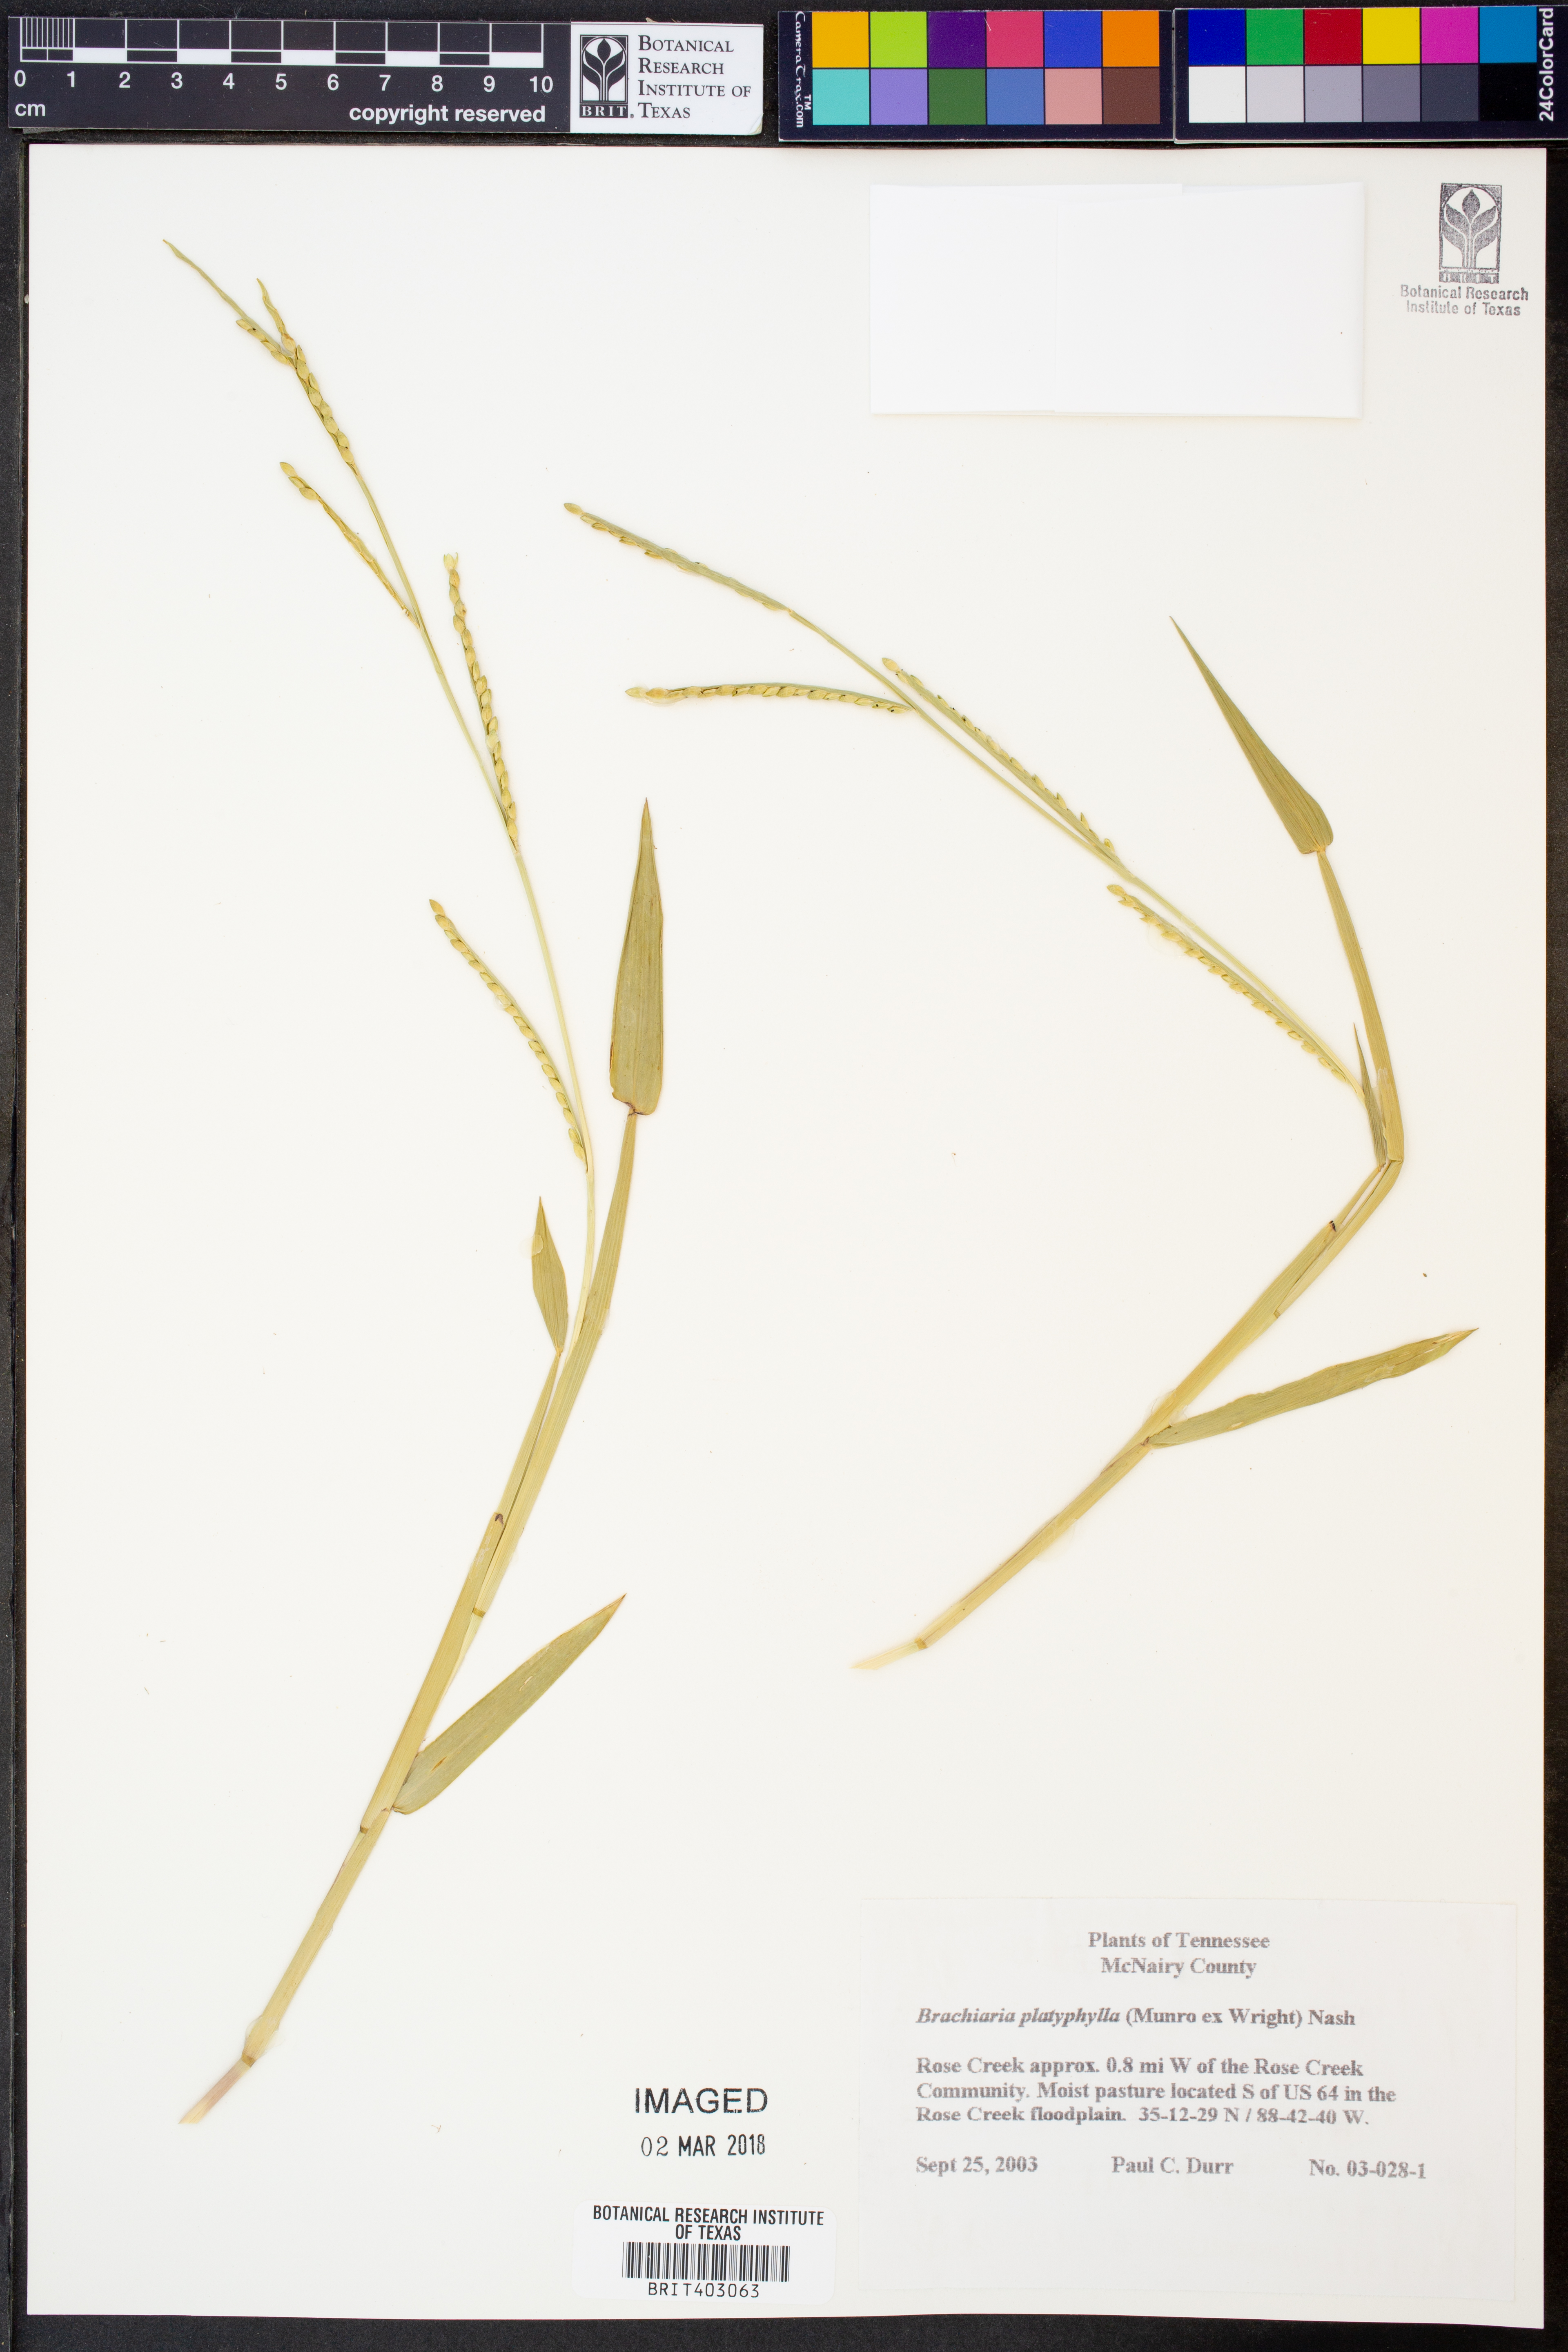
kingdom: Plantae
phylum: Tracheophyta
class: Liliopsida
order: Poales
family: Poaceae
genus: Urochloa
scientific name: Urochloa platyphylla
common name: White para grass
